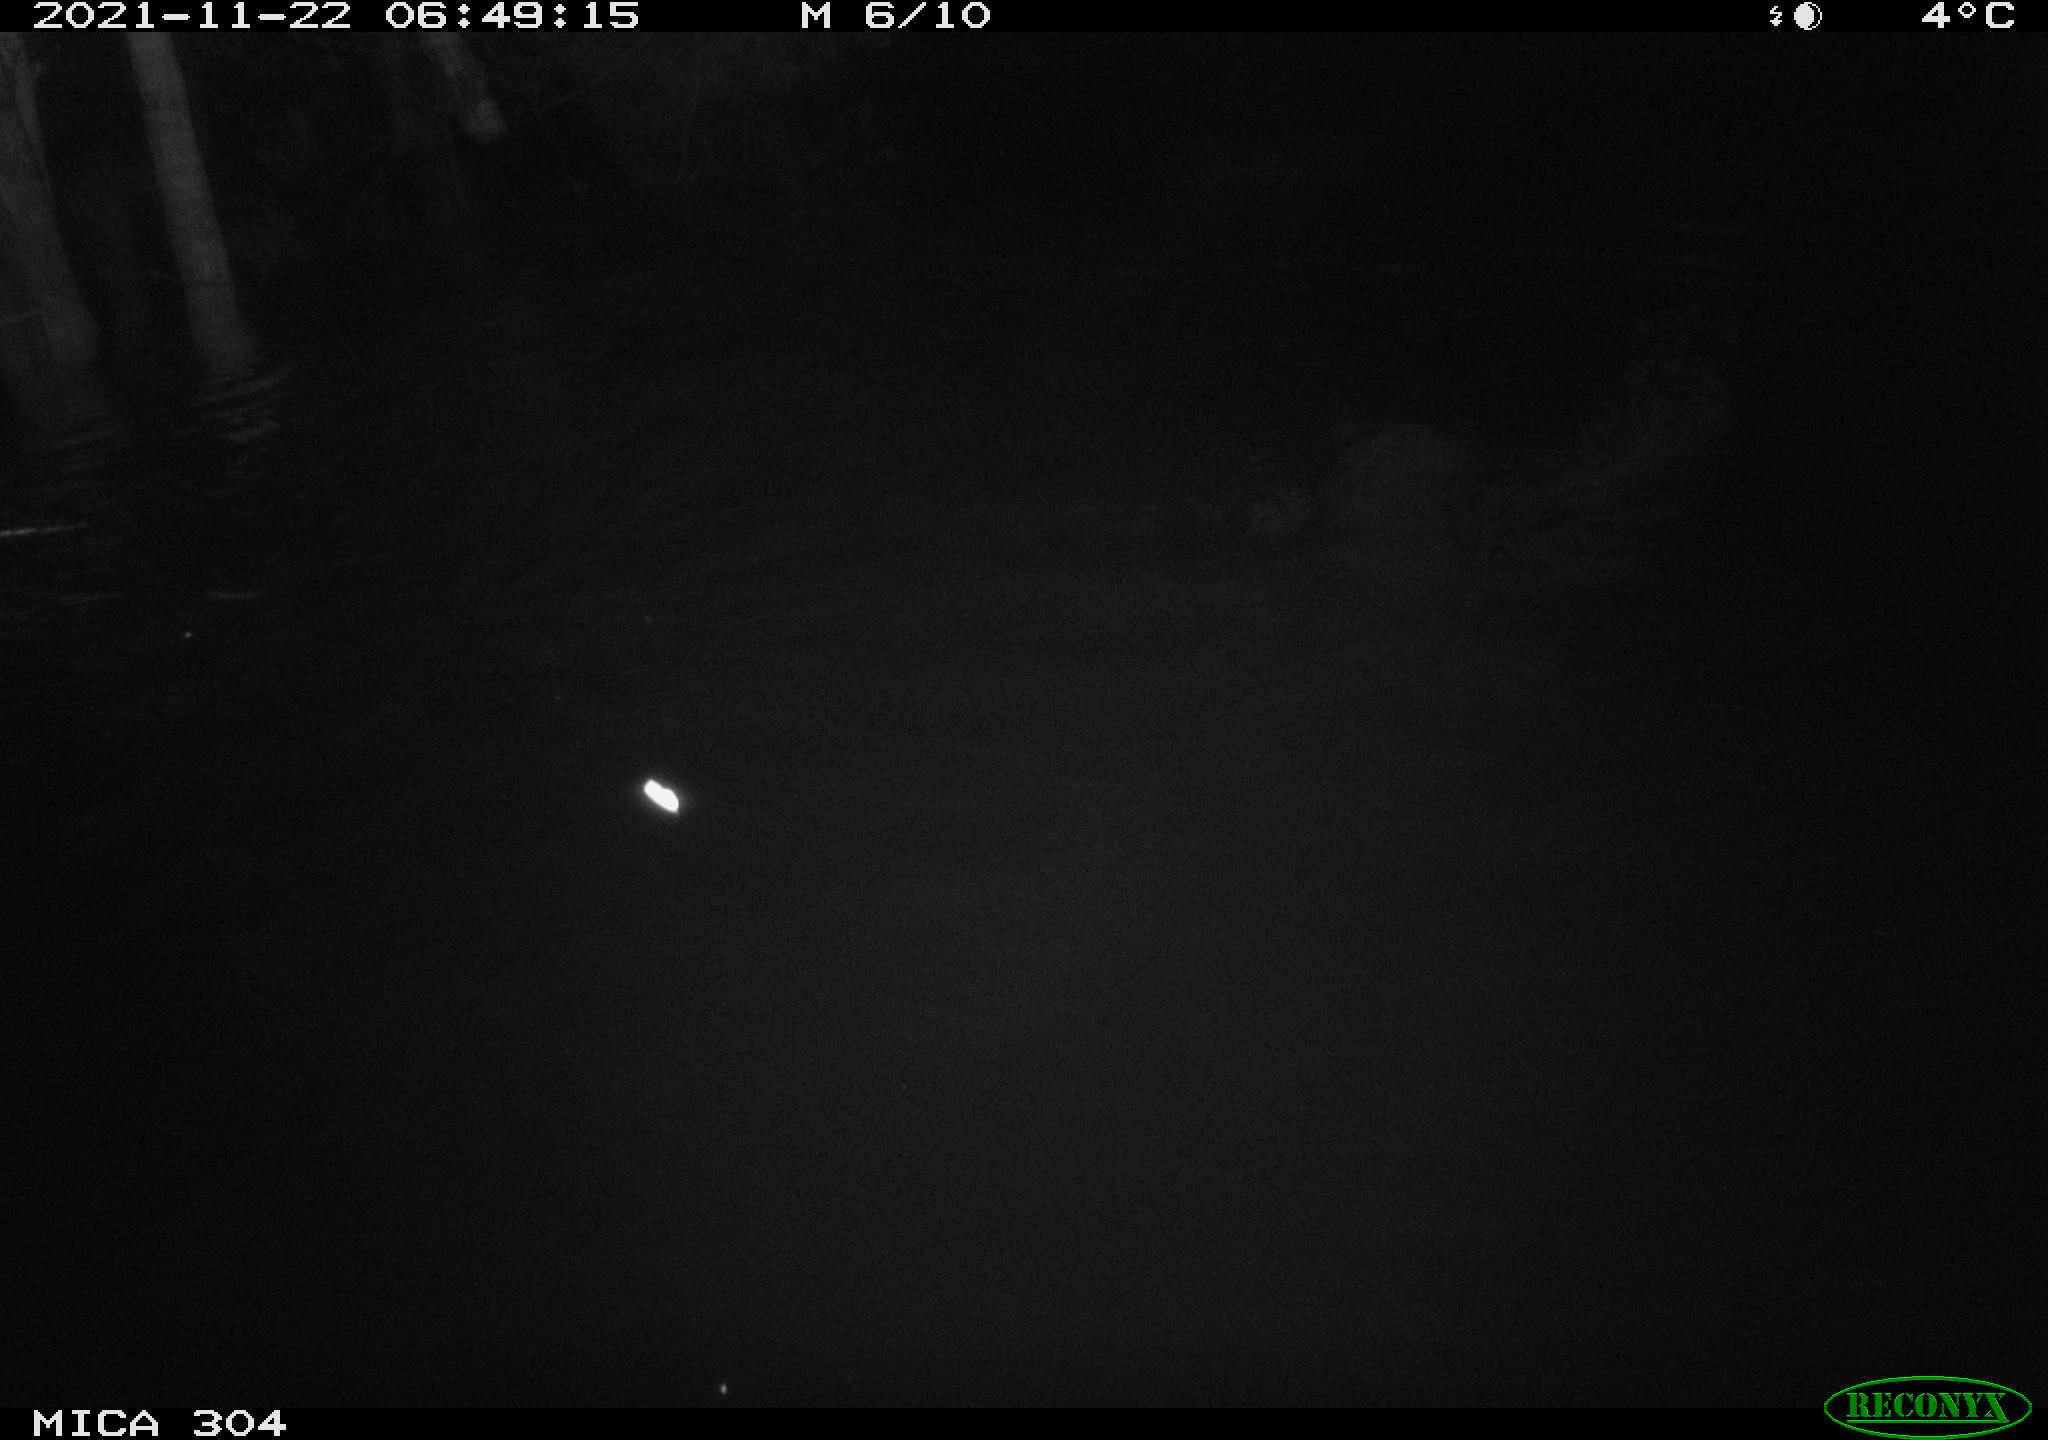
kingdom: Animalia
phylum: Chordata
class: Mammalia
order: Rodentia
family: Muridae
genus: Rattus
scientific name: Rattus norvegicus
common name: Brown rat
